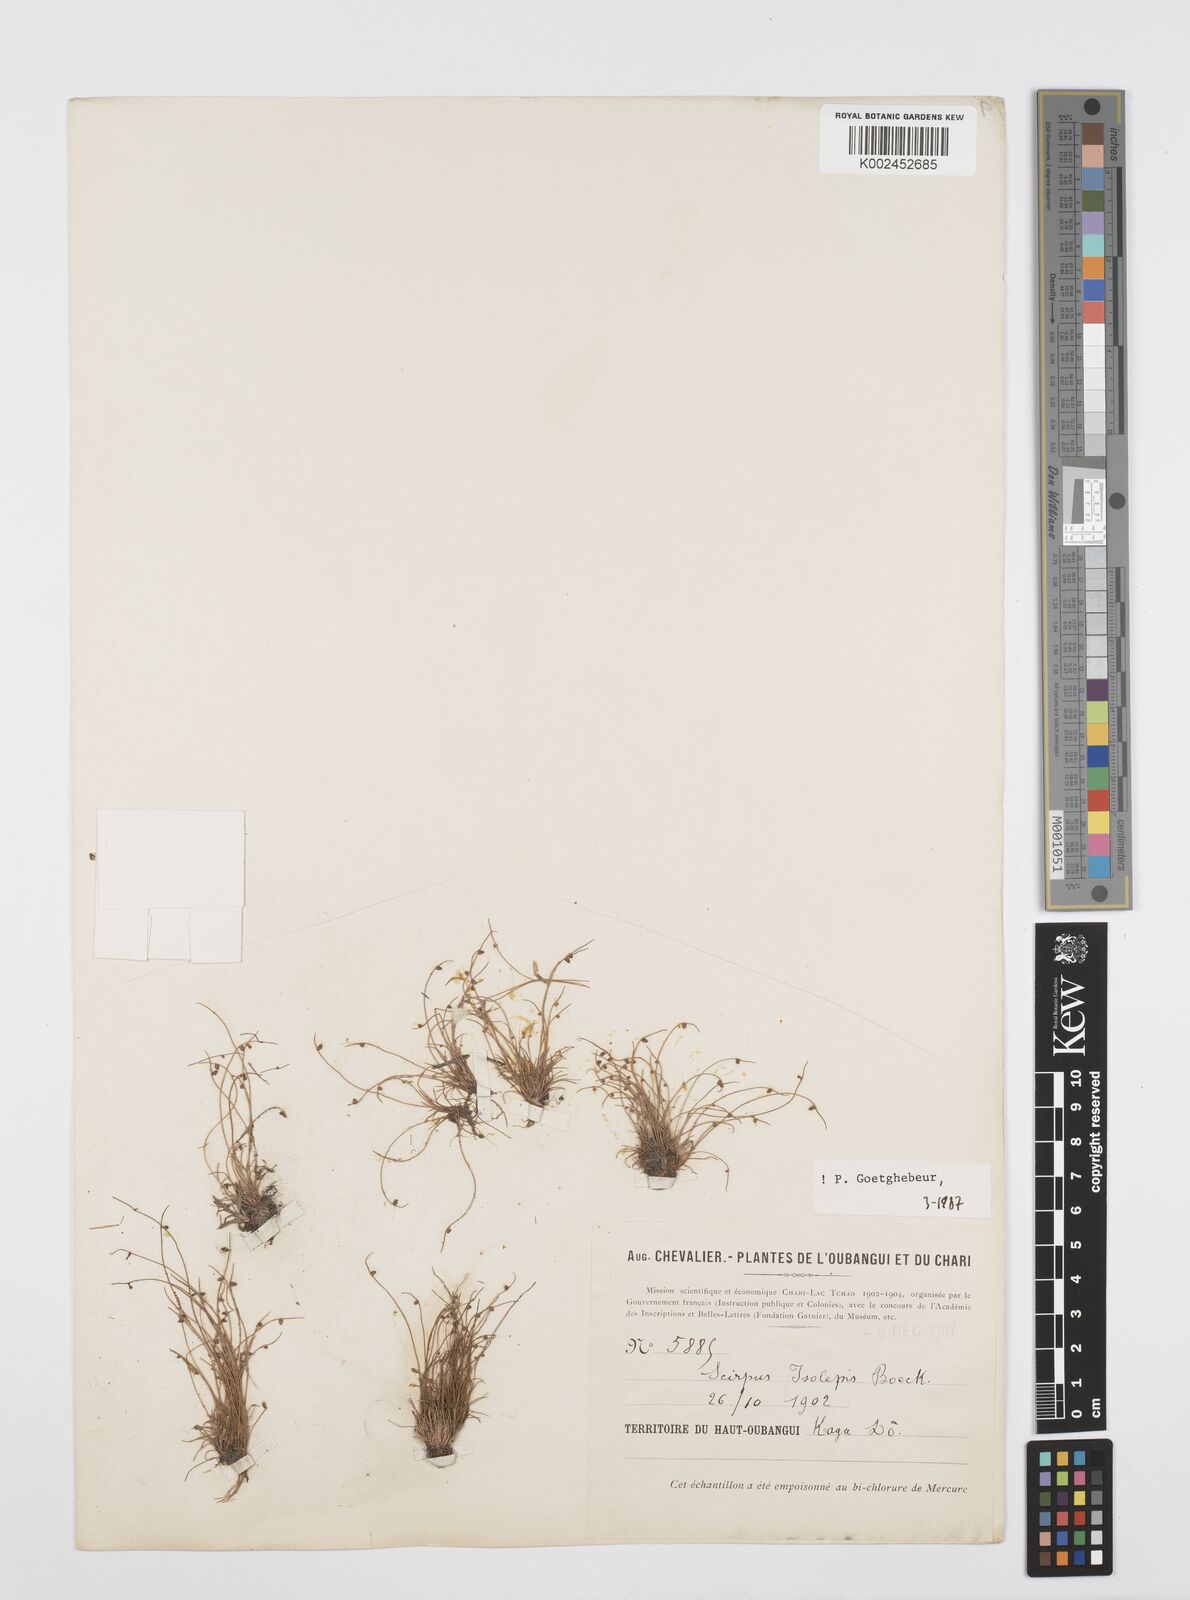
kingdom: Plantae
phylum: Tracheophyta
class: Liliopsida
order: Poales
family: Cyperaceae
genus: Cyperus
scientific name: Cyperus hemisphaericus
